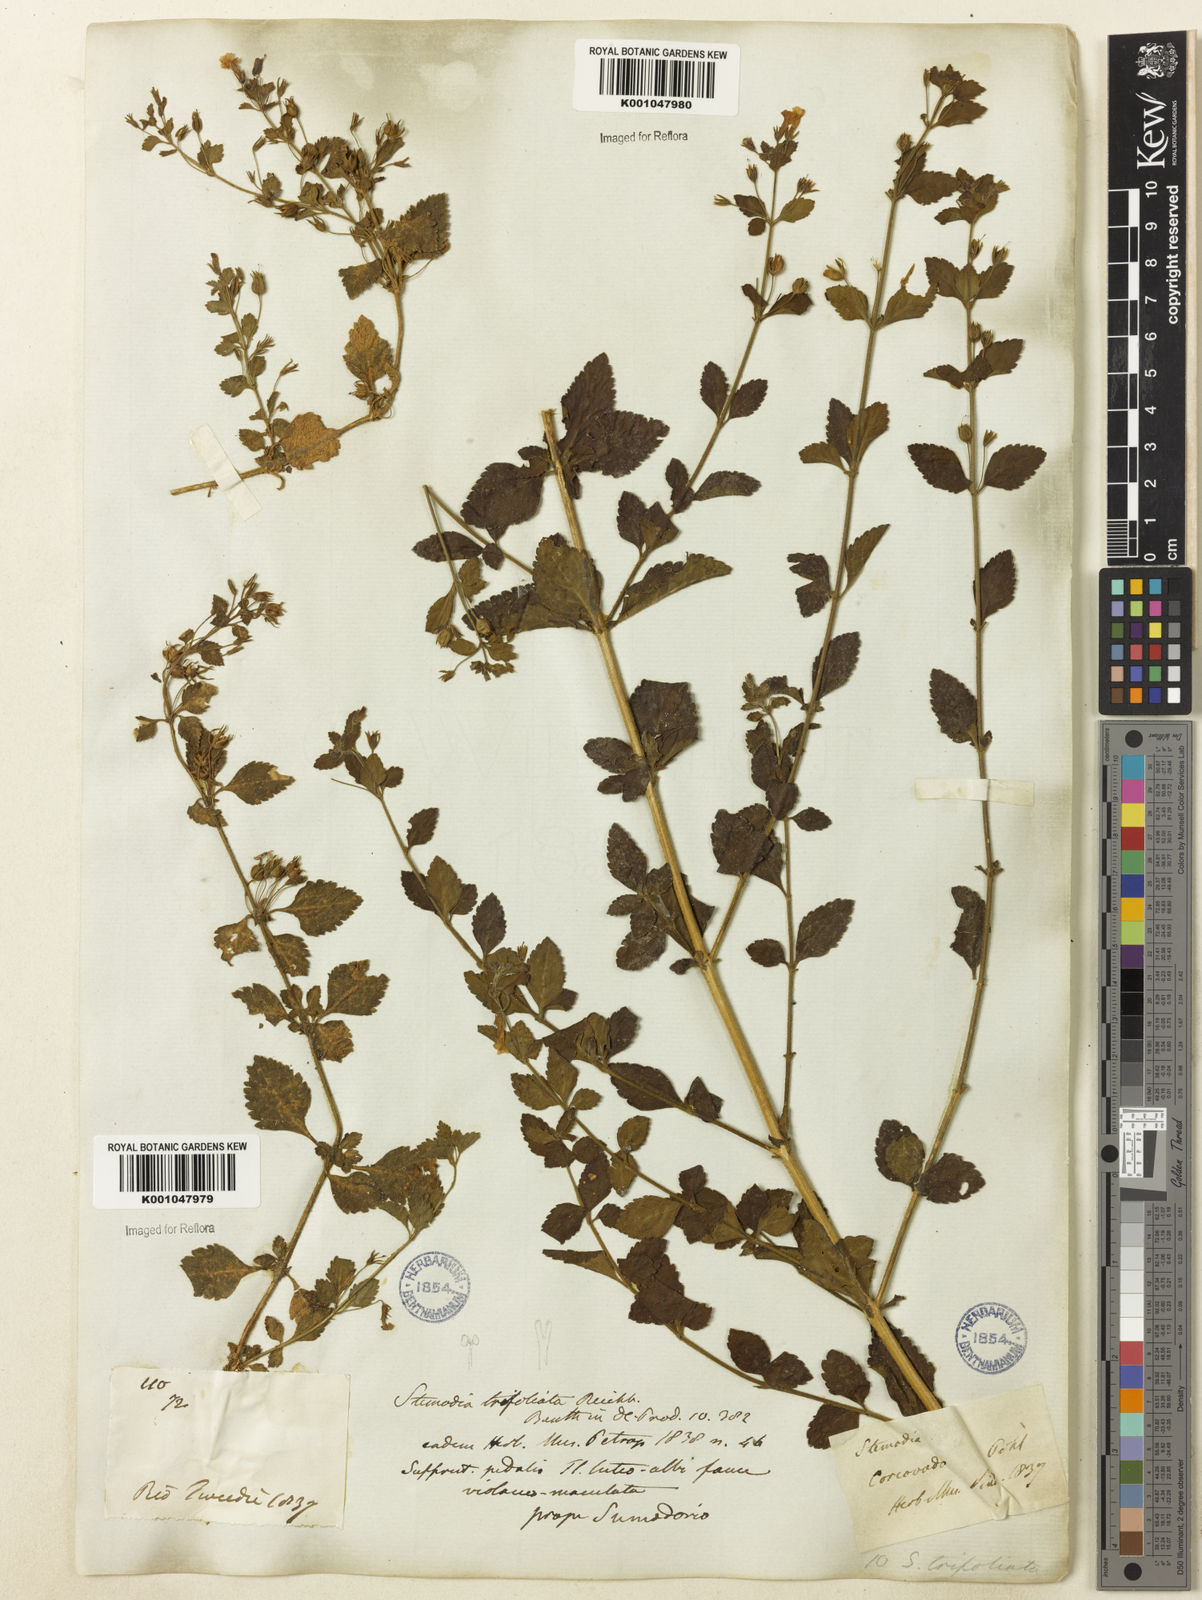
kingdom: Plantae
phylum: Tracheophyta
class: Magnoliopsida
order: Lamiales
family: Plantaginaceae
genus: Stemodia
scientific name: Stemodia trifoliata
